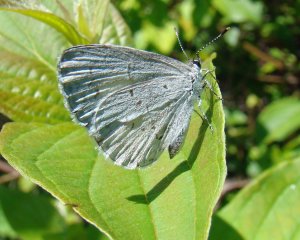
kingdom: Animalia
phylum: Arthropoda
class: Insecta
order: Lepidoptera
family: Lycaenidae
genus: Cyaniris
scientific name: Cyaniris neglecta
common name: Summer Azure
